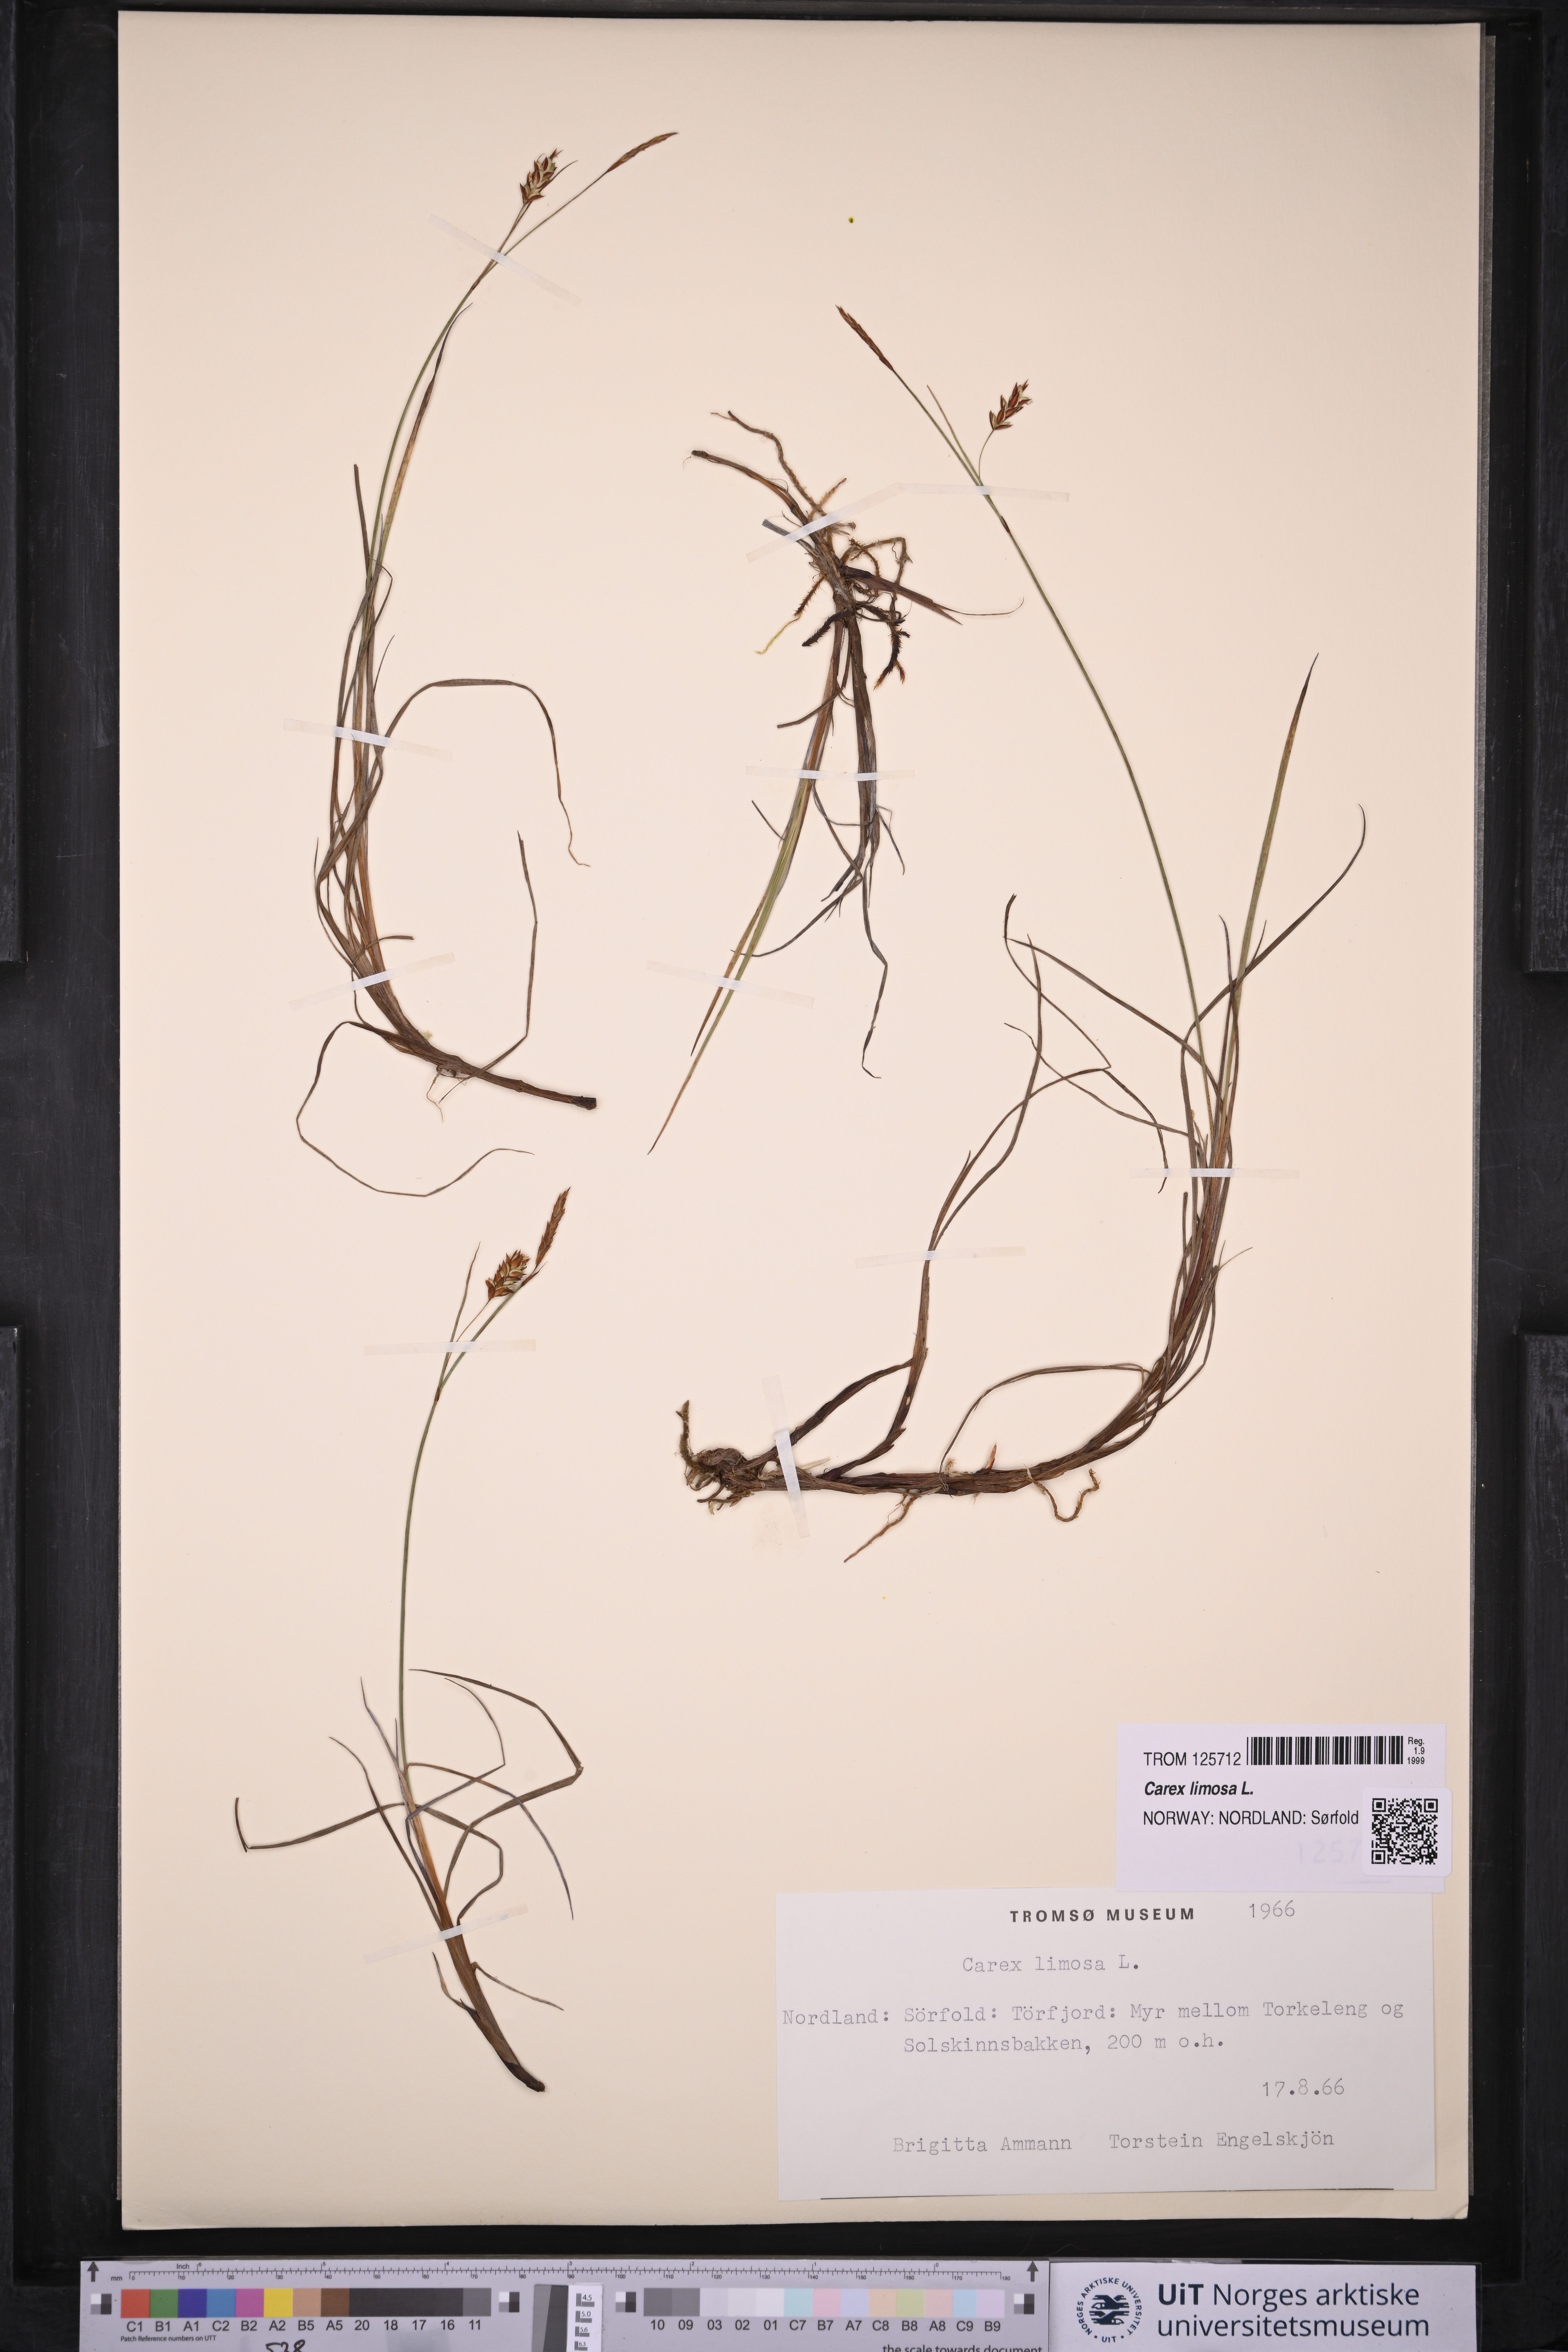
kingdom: Plantae
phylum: Tracheophyta
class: Liliopsida
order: Poales
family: Cyperaceae
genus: Carex
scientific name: Carex limosa
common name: Bog sedge
